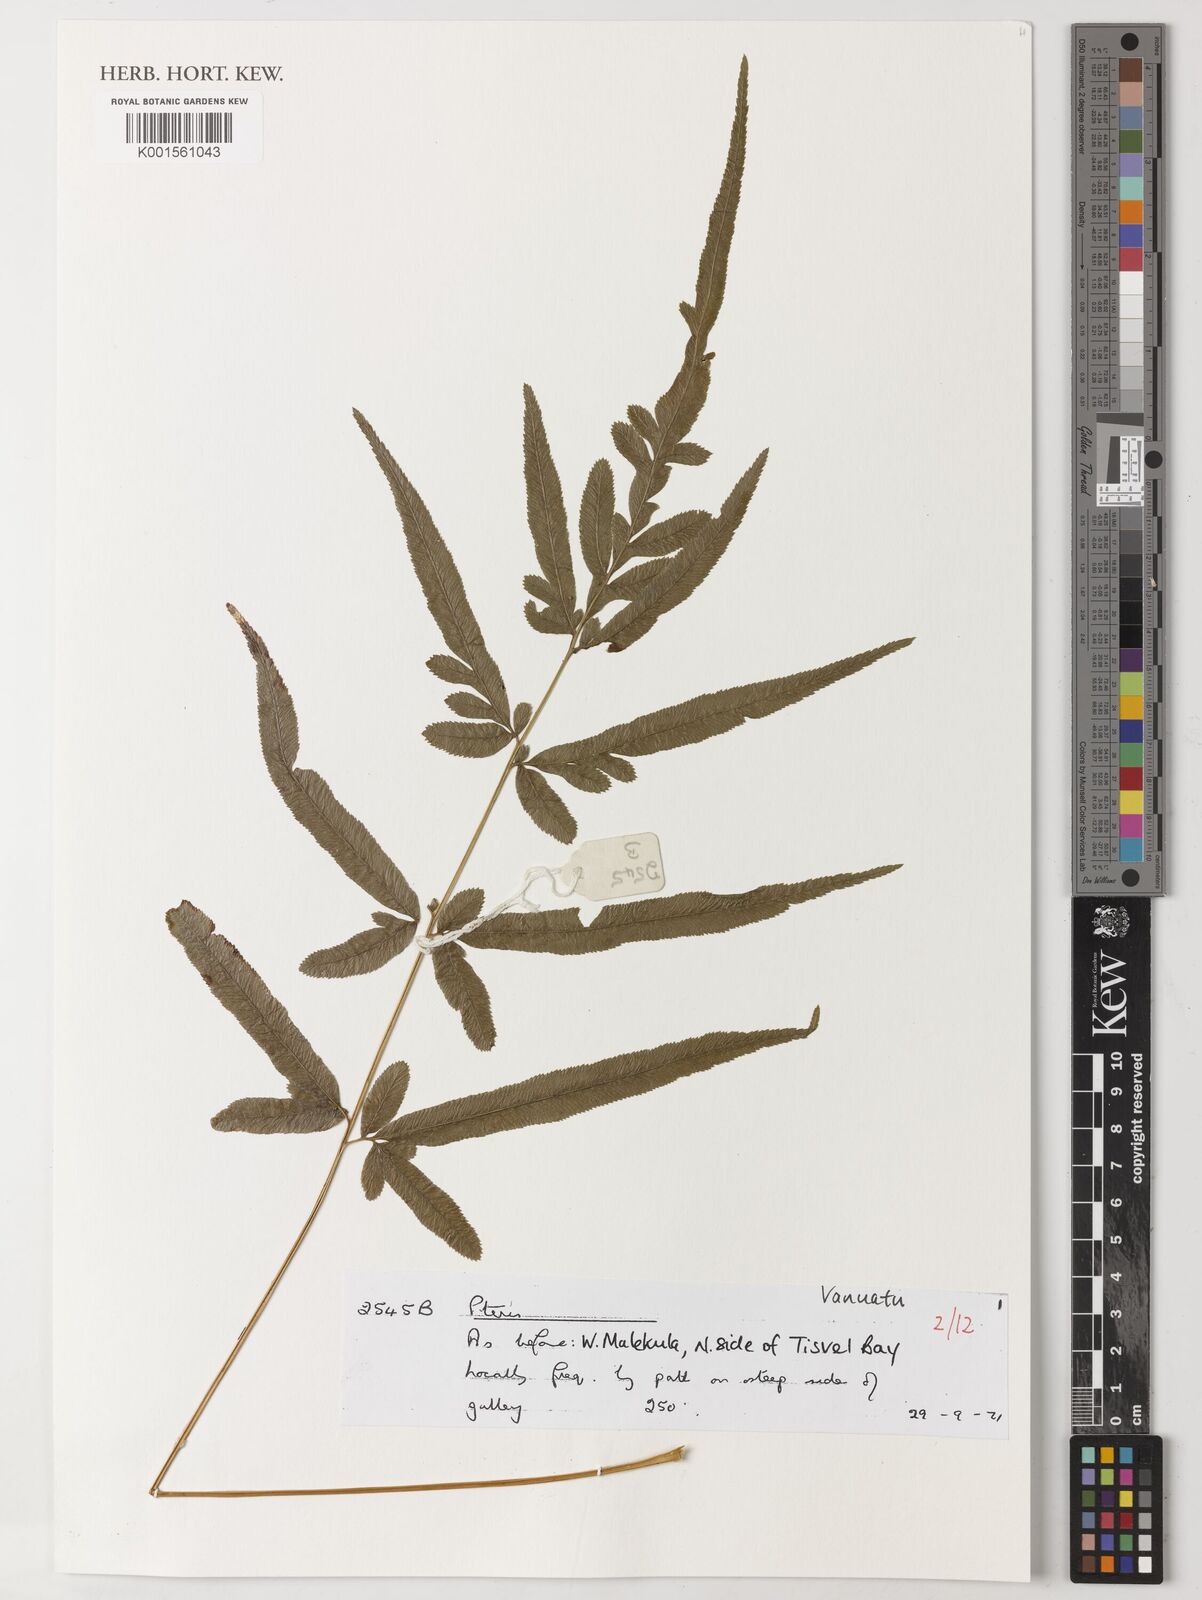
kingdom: Plantae
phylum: Tracheophyta
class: Polypodiopsida
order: Polypodiales
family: Pteridaceae
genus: Pteris
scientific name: Pteris
